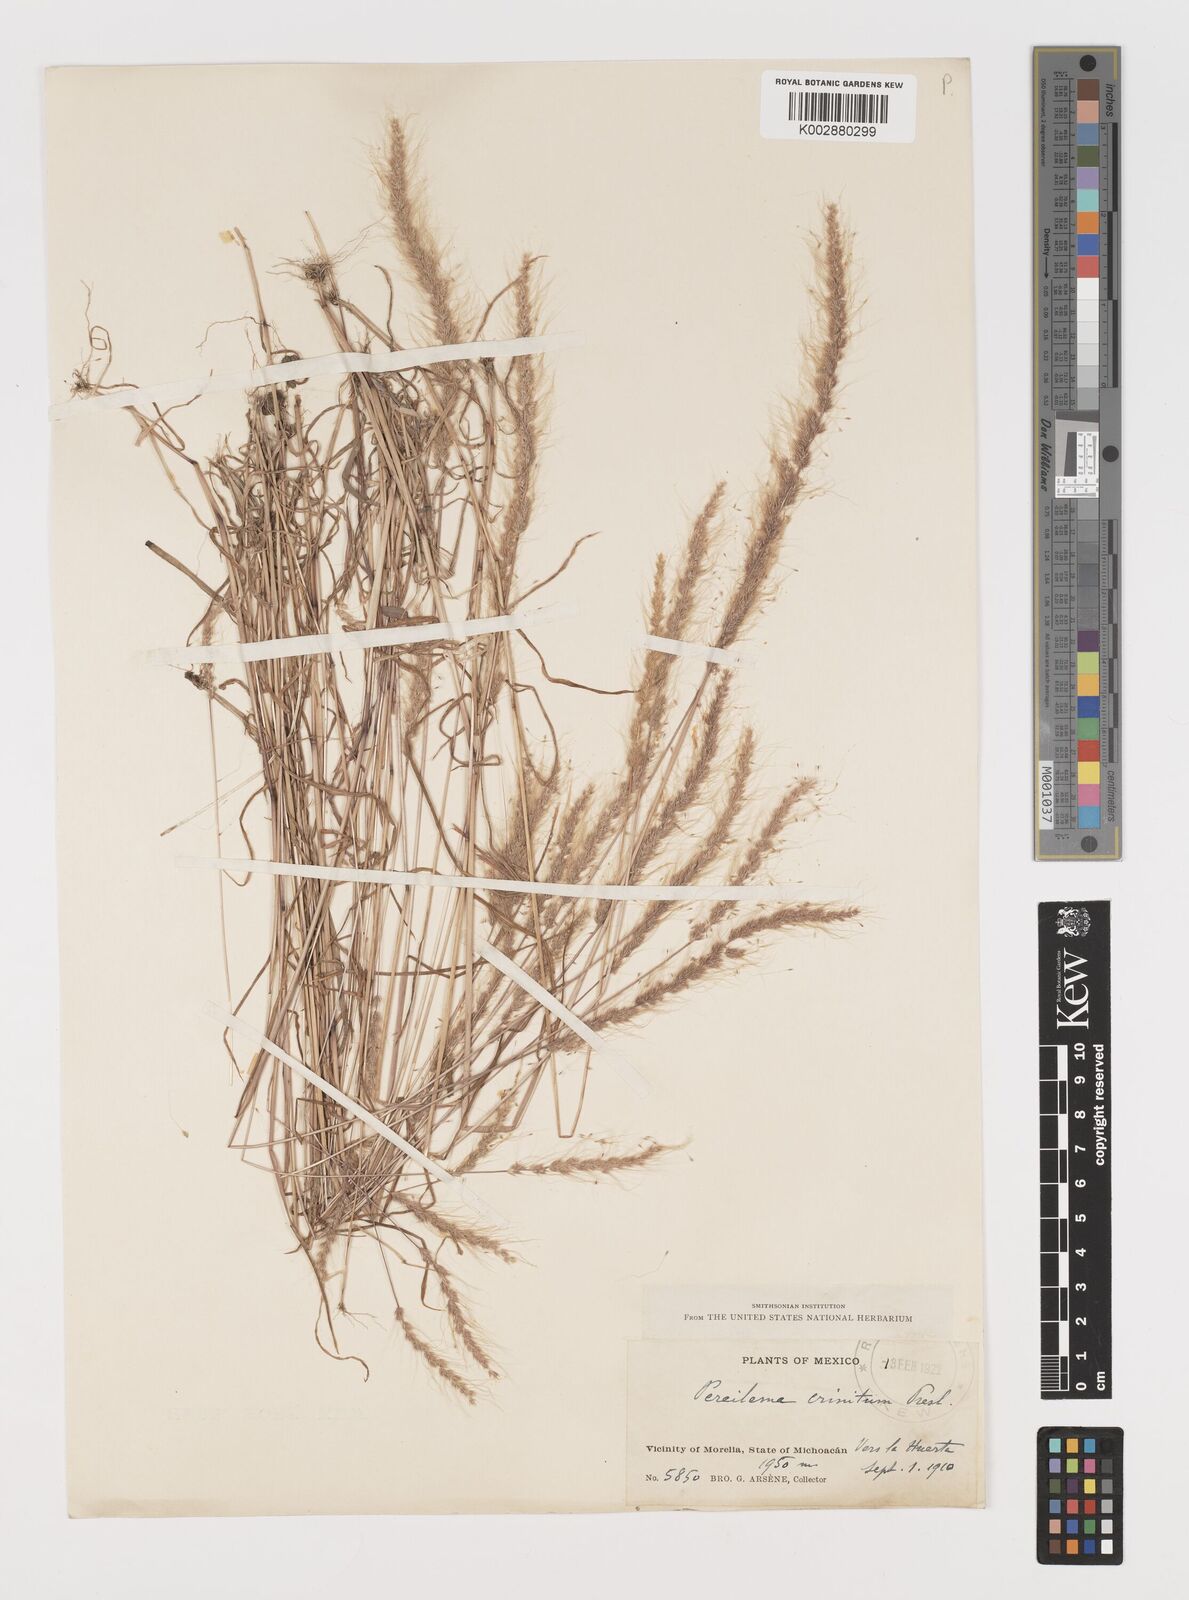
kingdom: Plantae
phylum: Tracheophyta
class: Liliopsida
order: Poales
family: Poaceae
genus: Muhlenbergia
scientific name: Muhlenbergia pereilema
